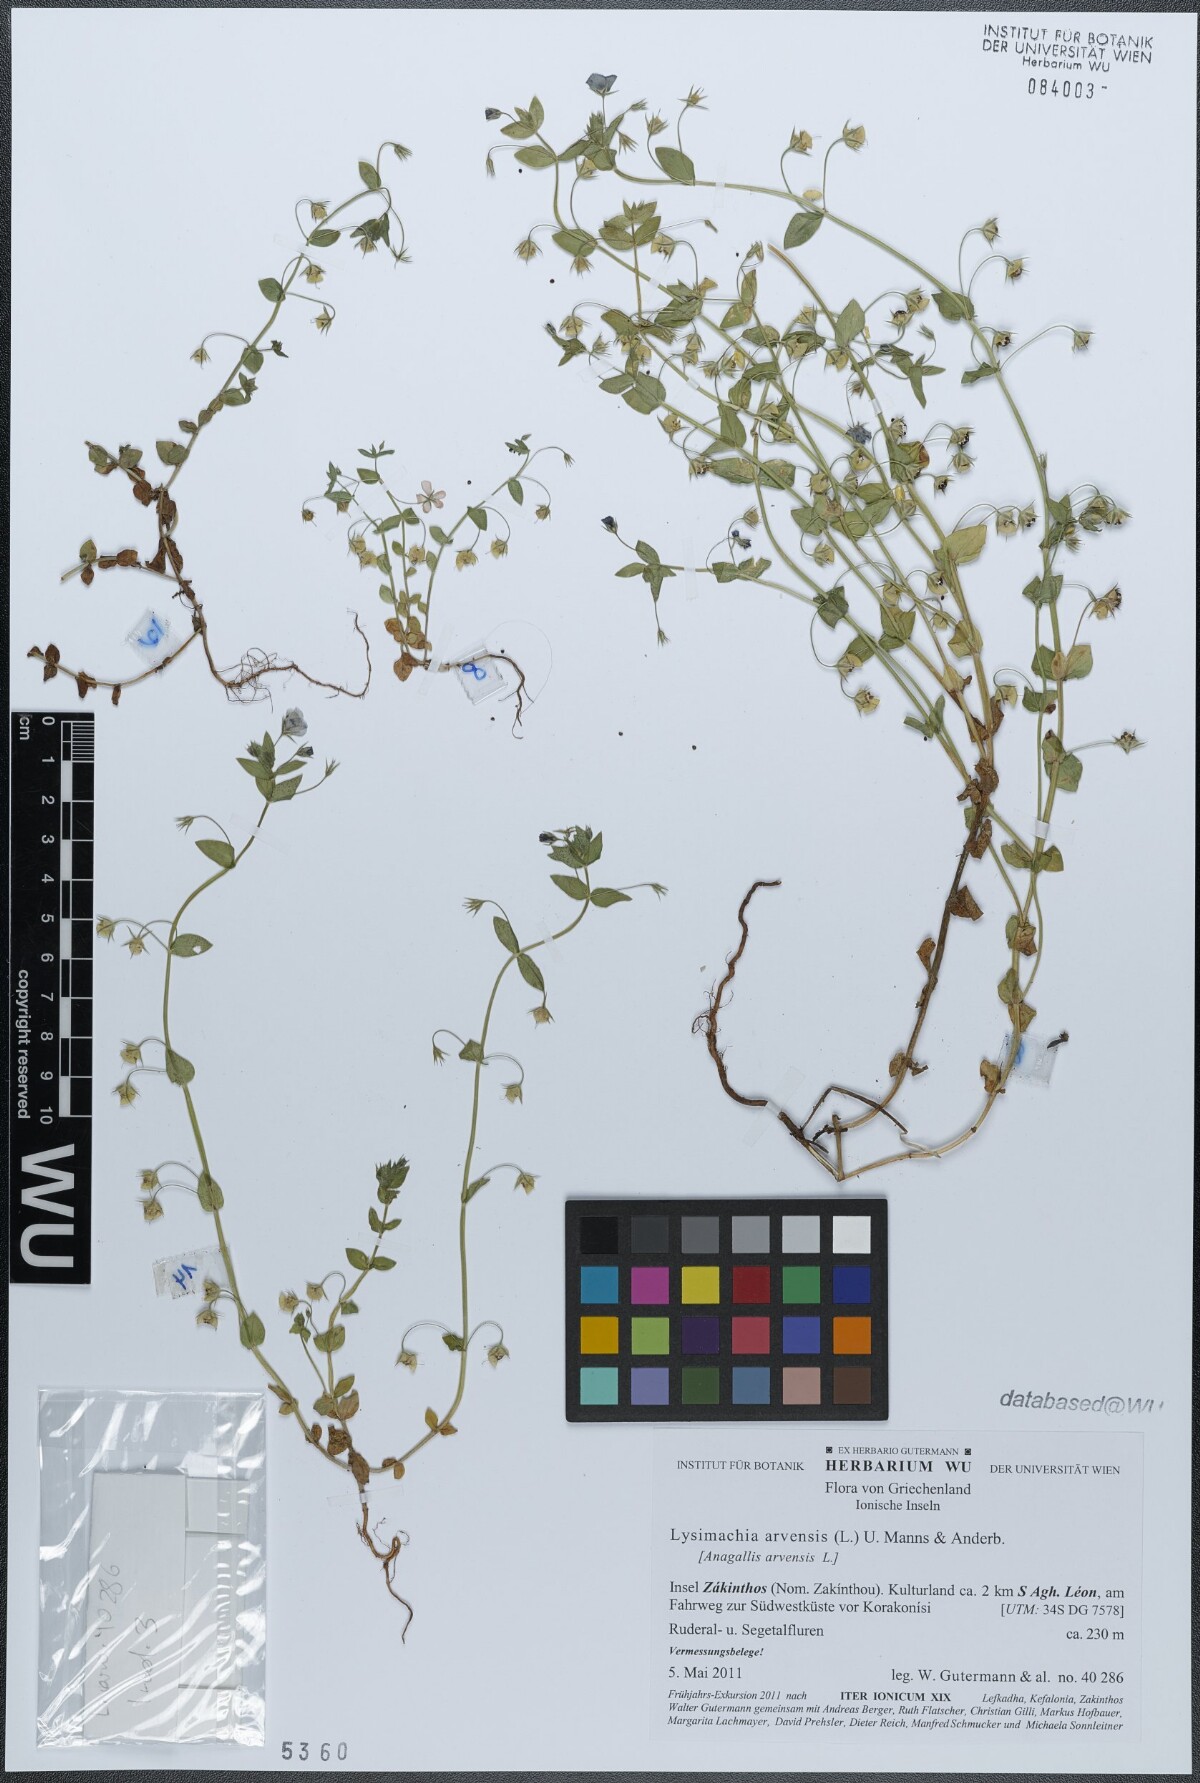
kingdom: Plantae
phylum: Tracheophyta
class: Magnoliopsida
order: Ericales
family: Primulaceae
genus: Lysimachia
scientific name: Lysimachia arvensis
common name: Scarlet pimpernel
